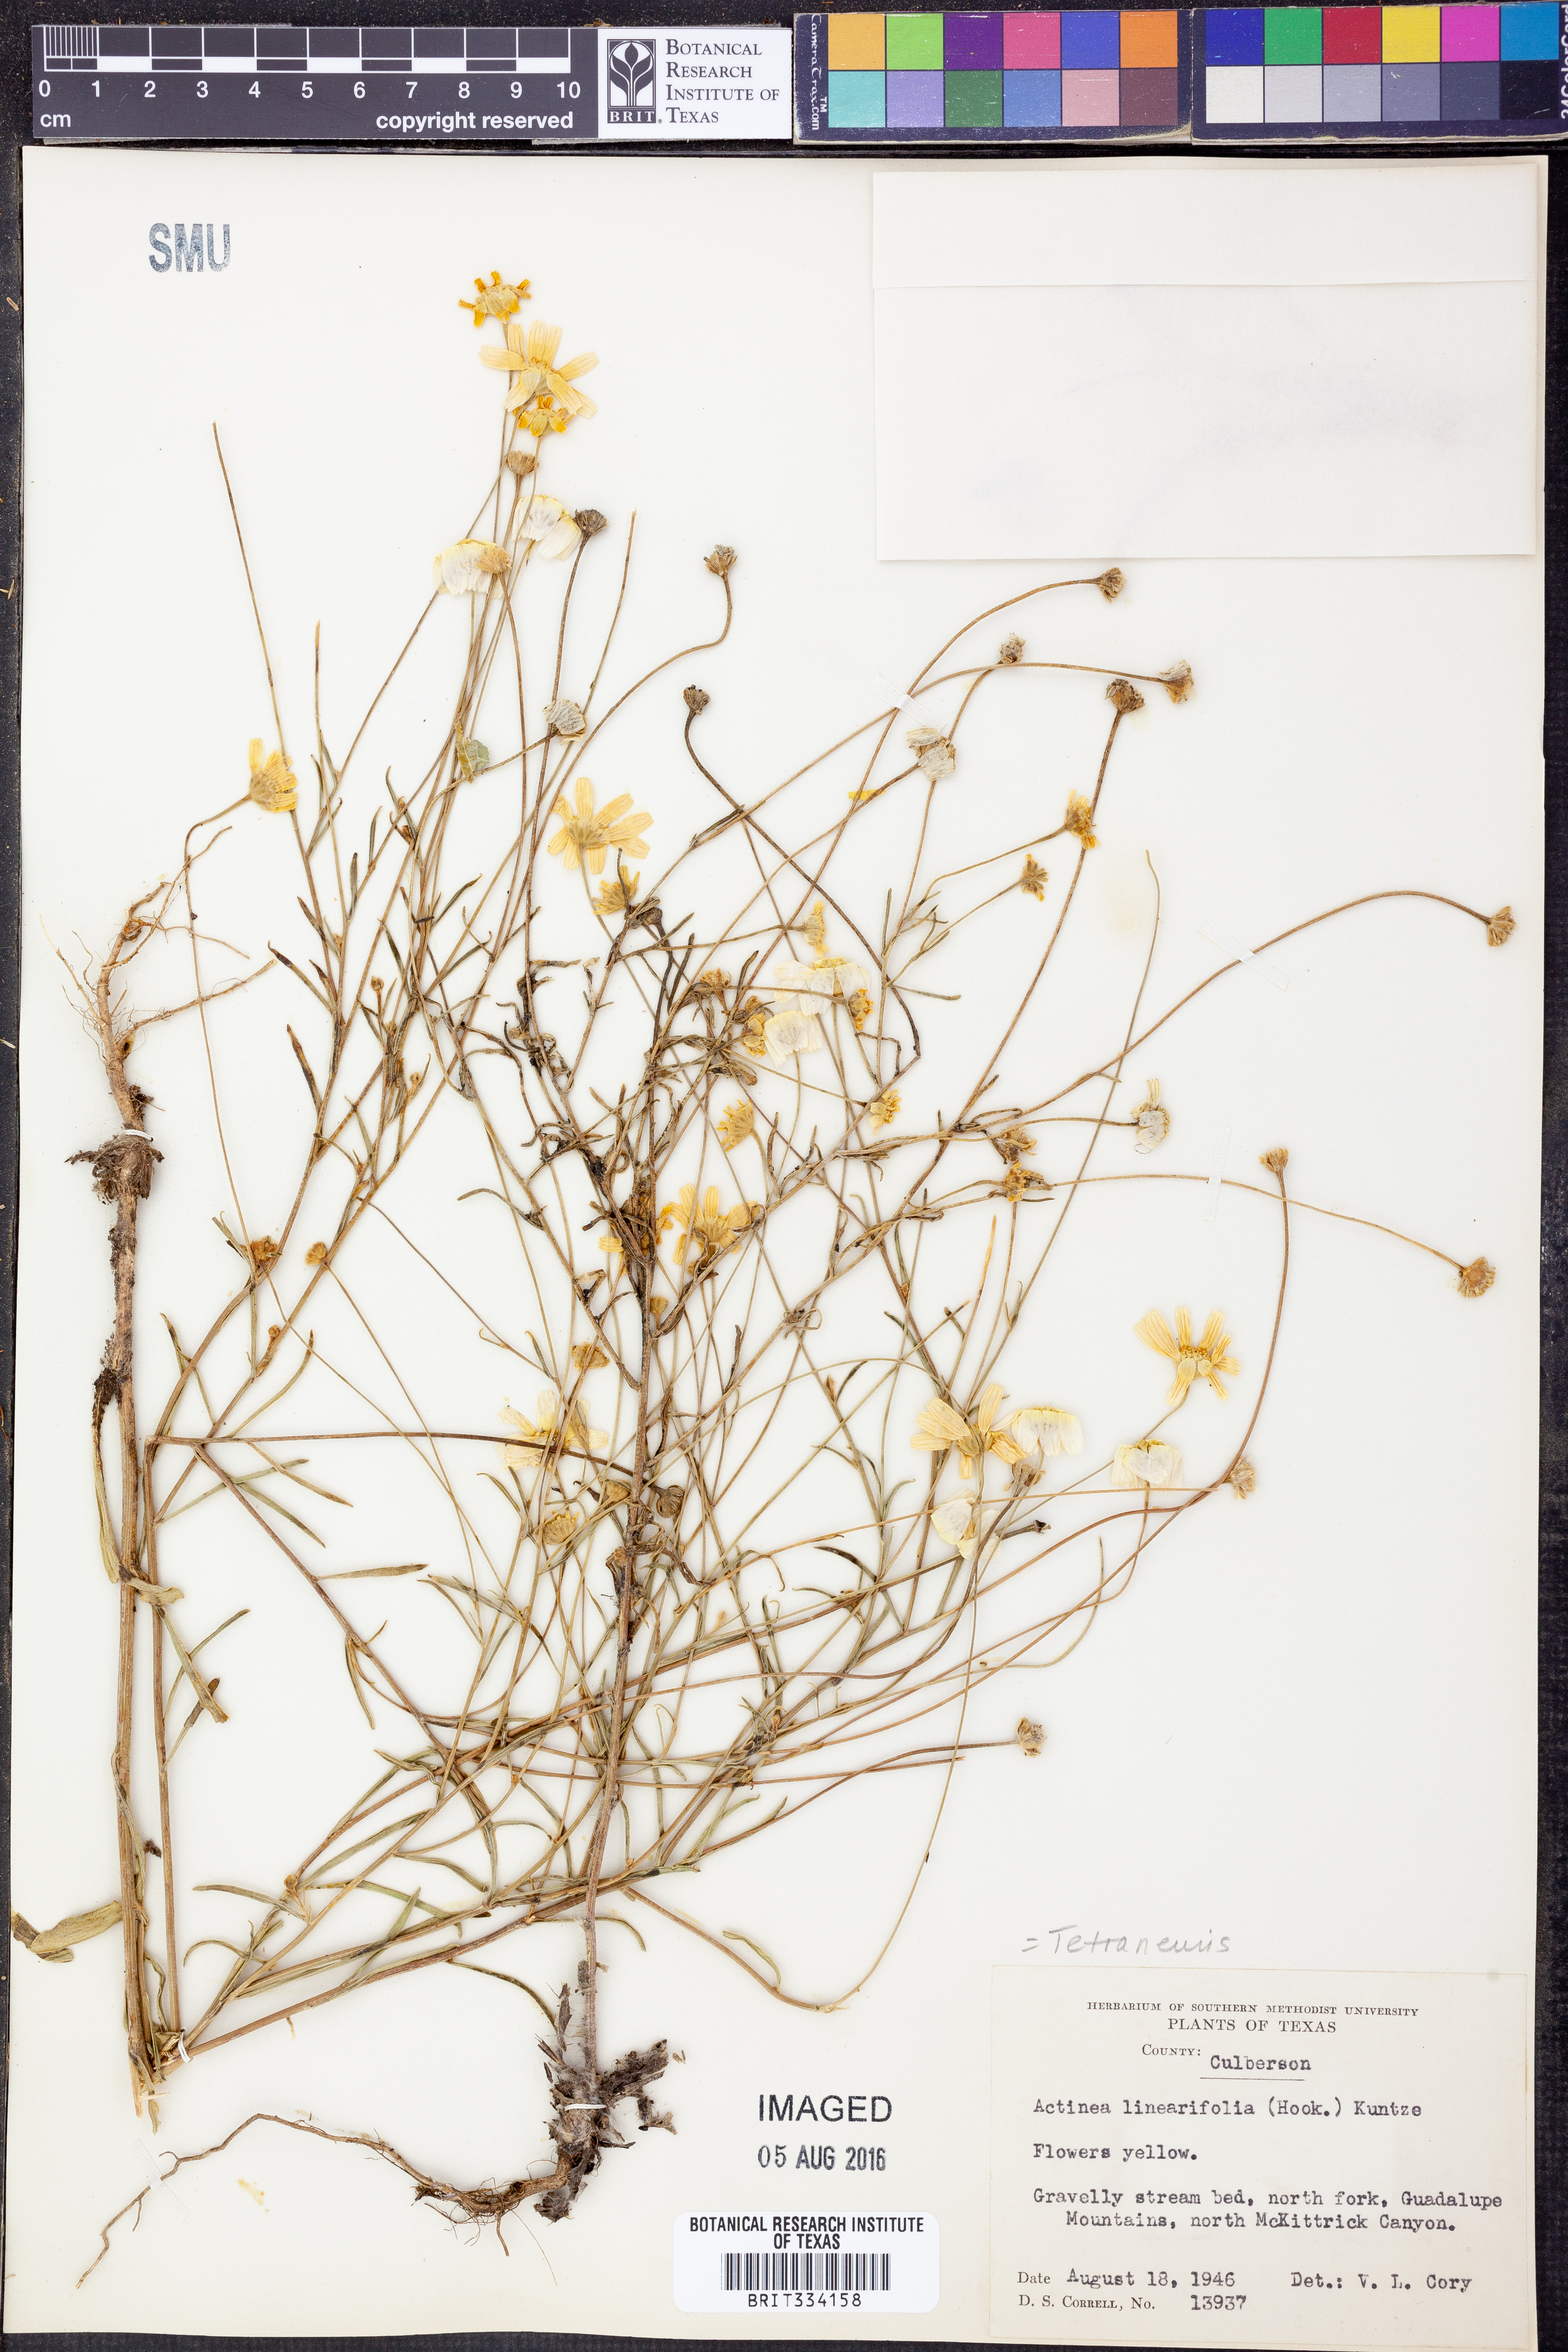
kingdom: Plantae
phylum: Tracheophyta
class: Magnoliopsida
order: Asterales
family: Asteraceae
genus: Tetraneuris
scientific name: Tetraneuris linearifolia
